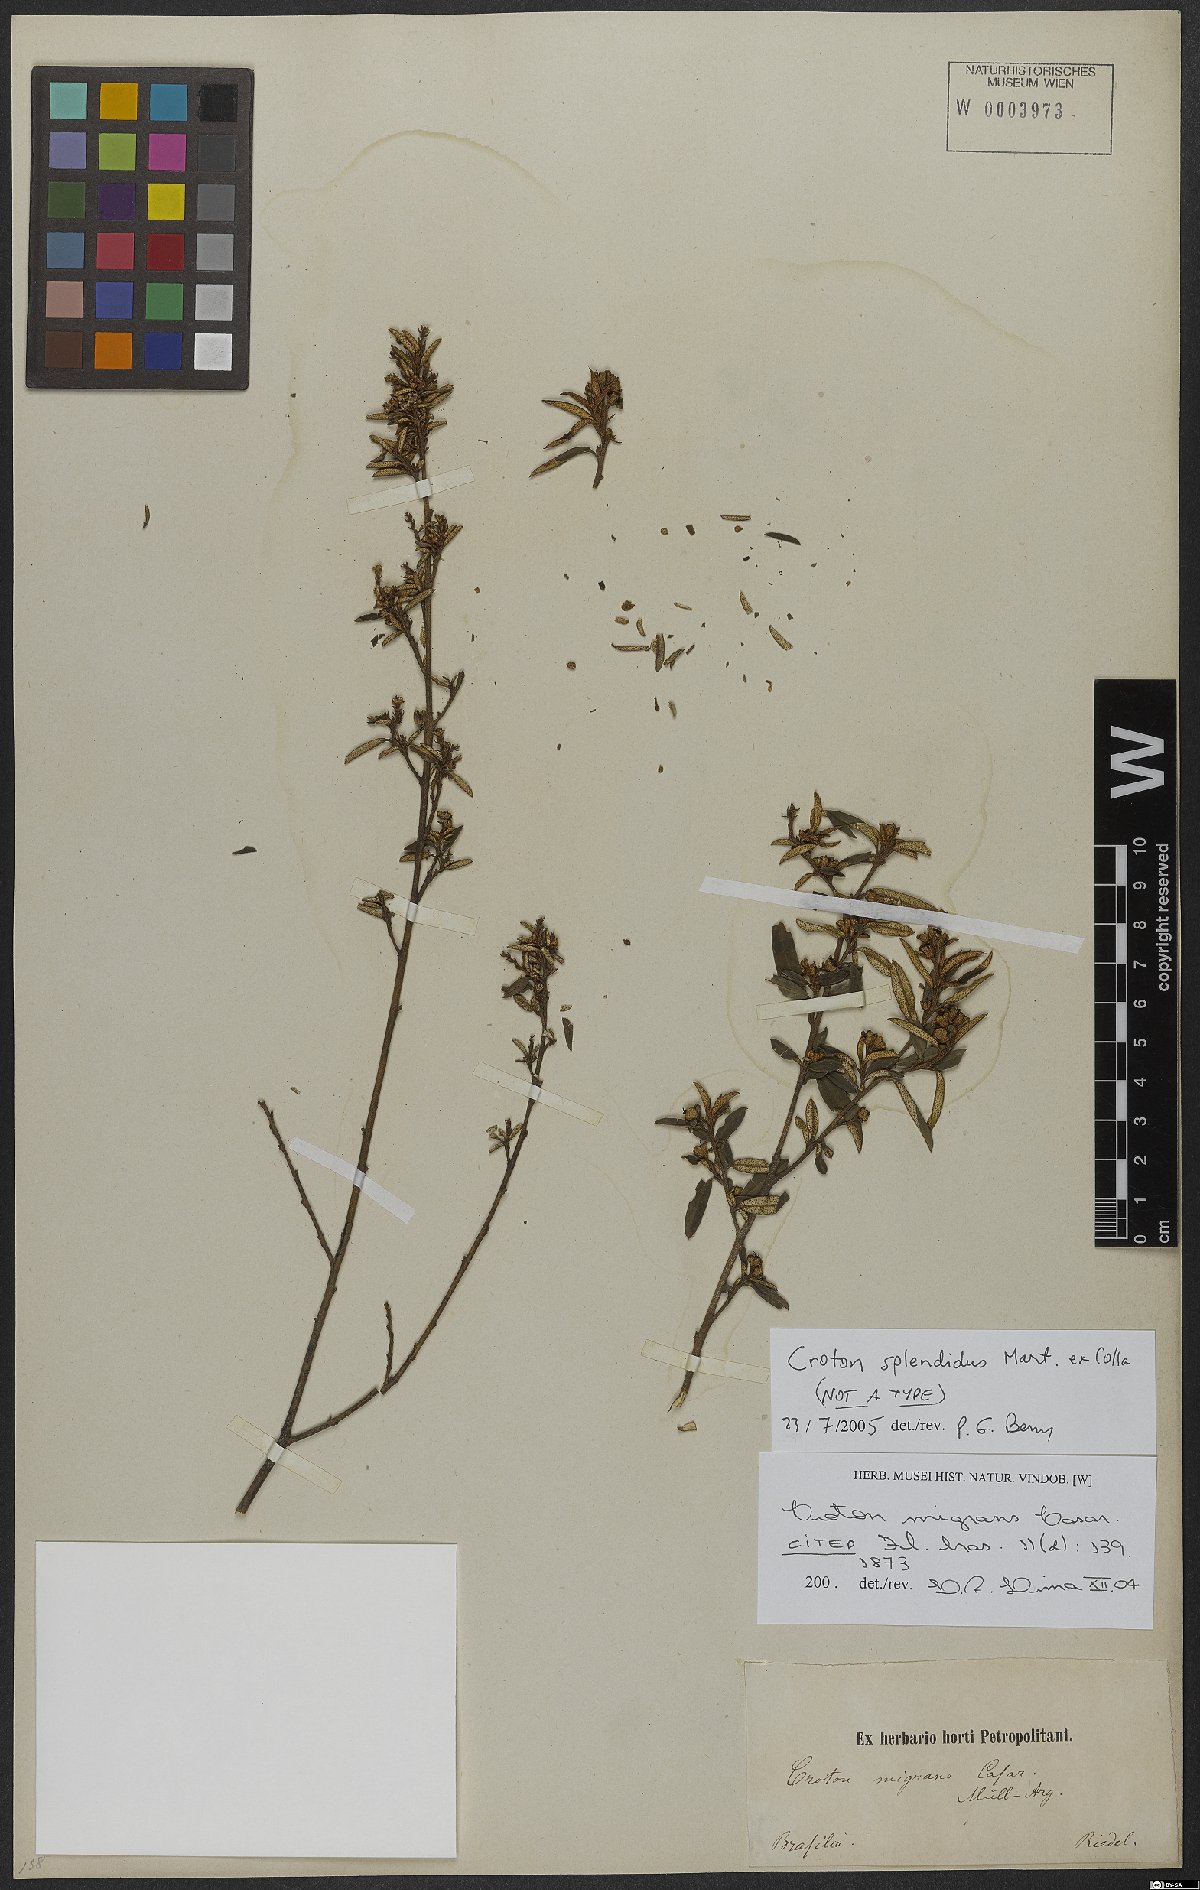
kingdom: Plantae
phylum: Tracheophyta
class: Magnoliopsida
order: Malpighiales
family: Euphorbiaceae
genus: Croton
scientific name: Croton splendidus
